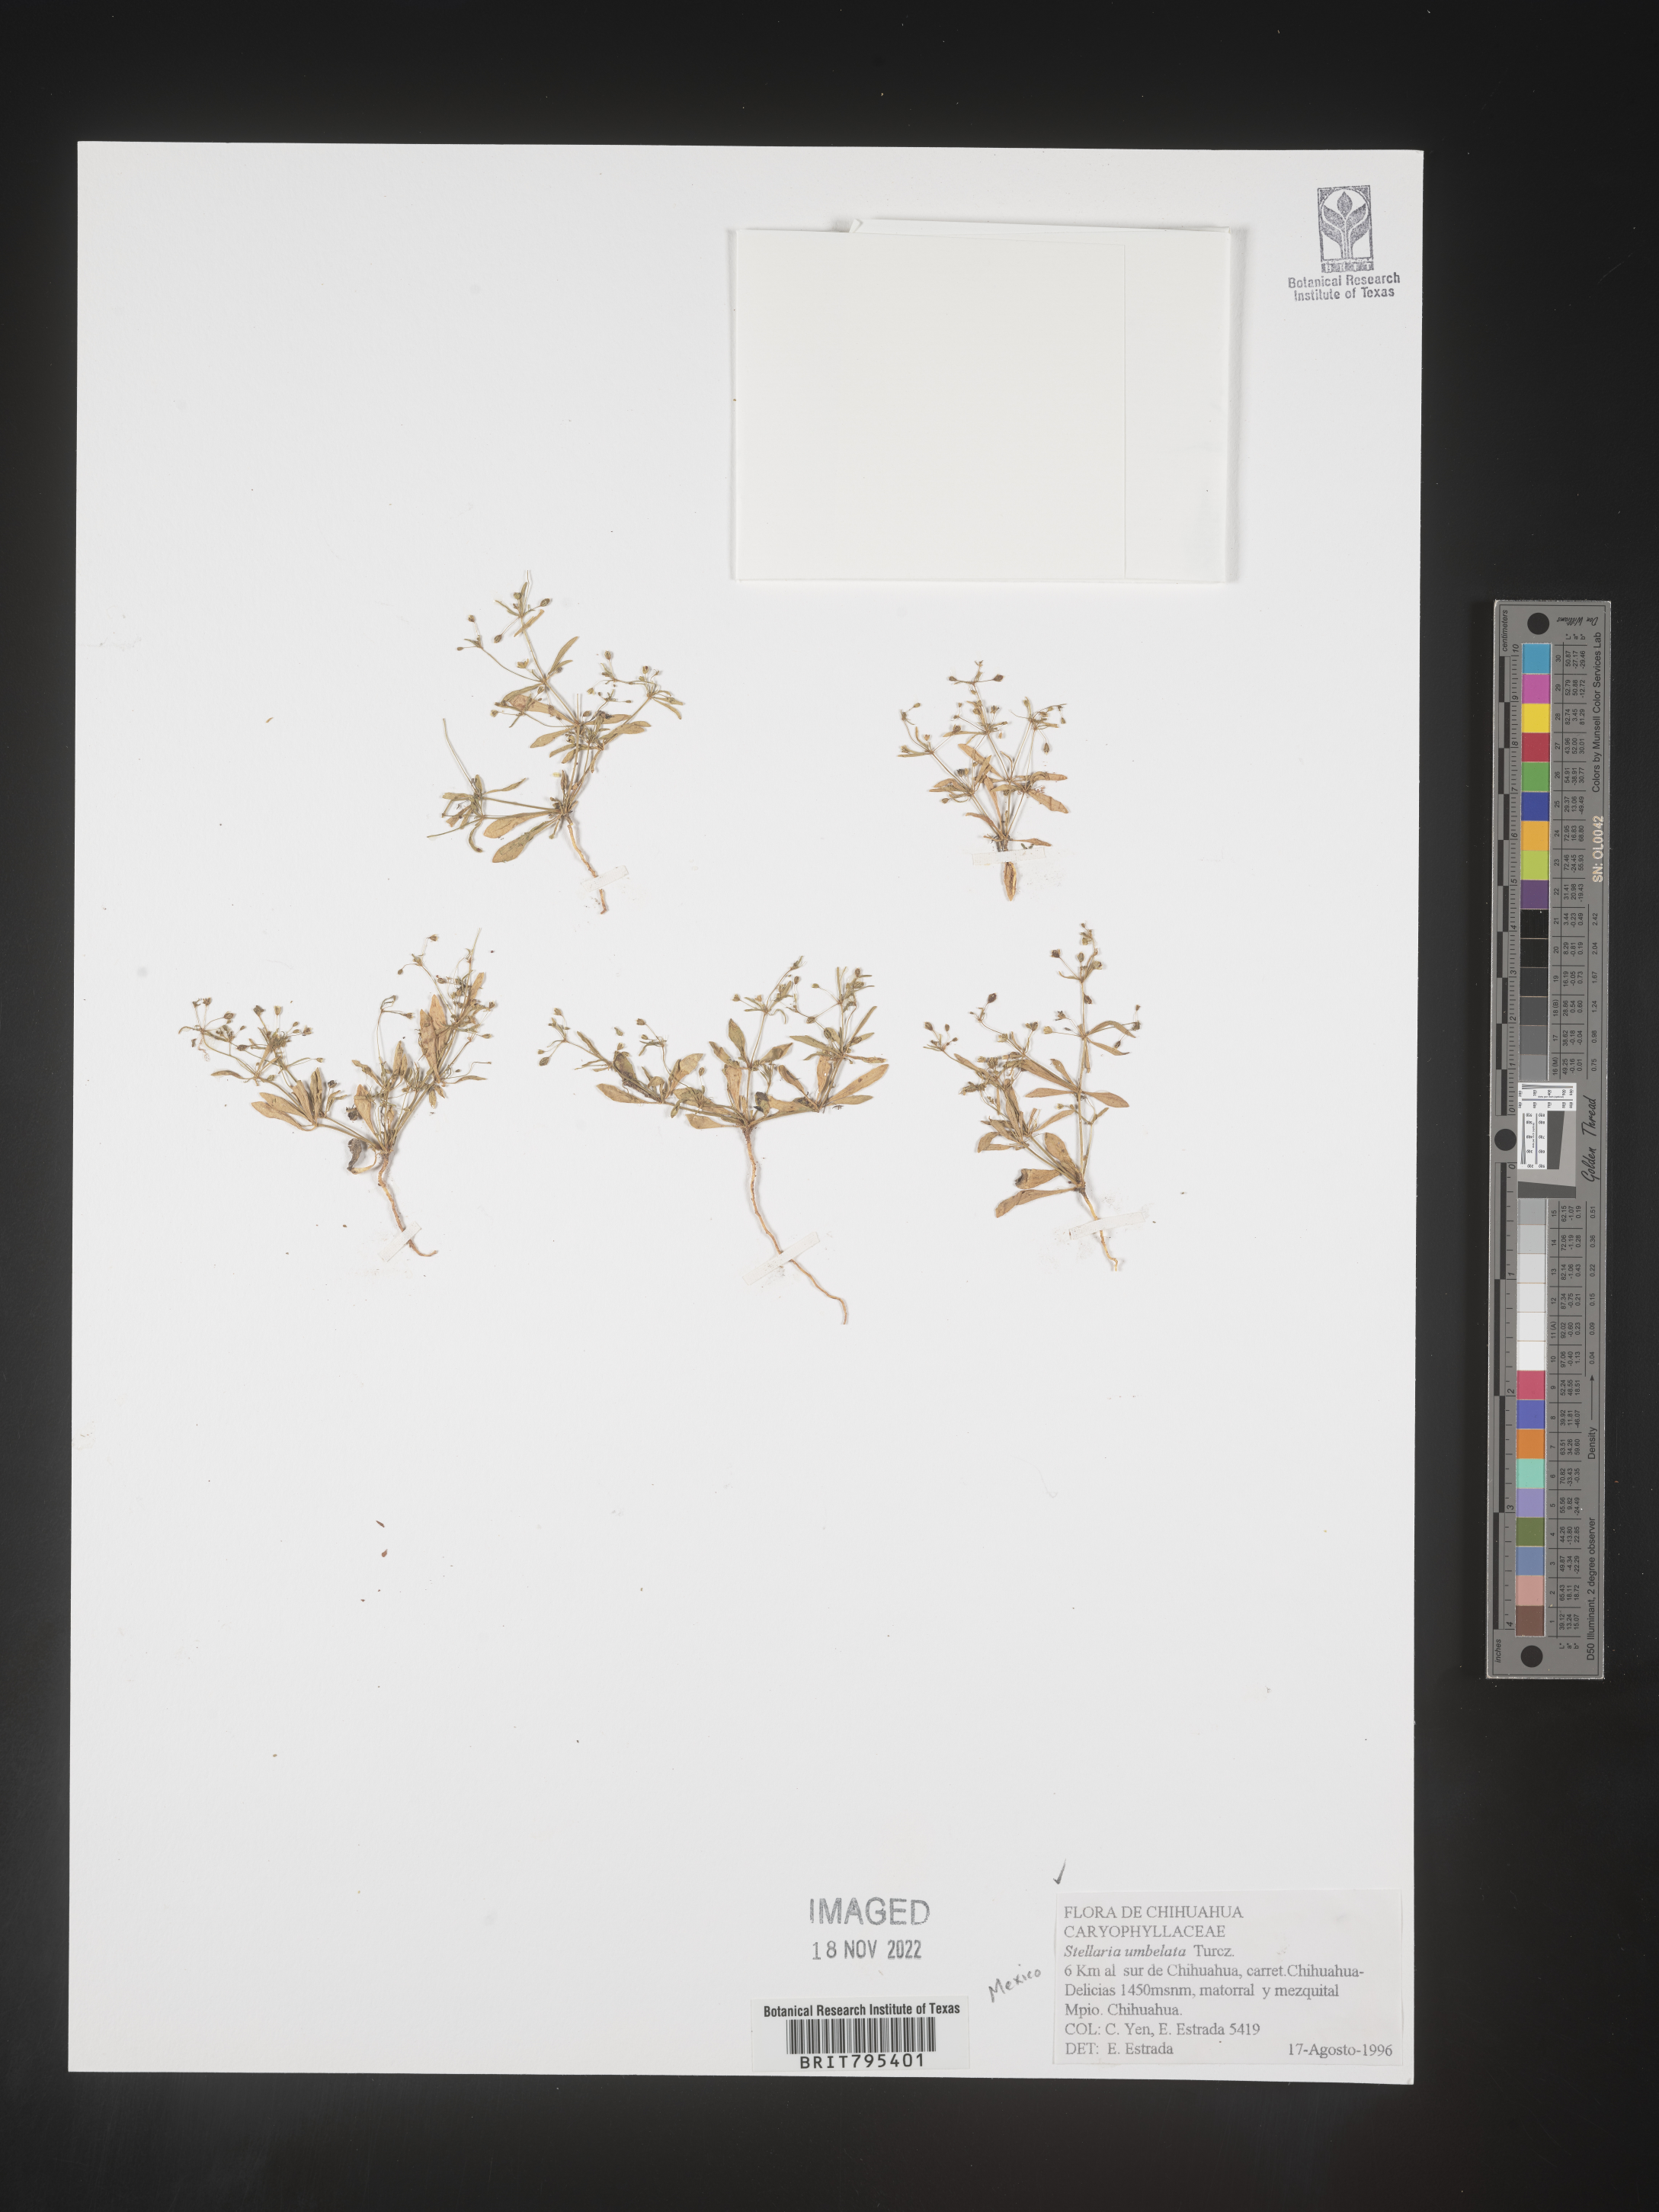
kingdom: Plantae
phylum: Tracheophyta
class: Magnoliopsida
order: Caryophyllales
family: Caryophyllaceae
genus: Stellaria
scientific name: Stellaria
